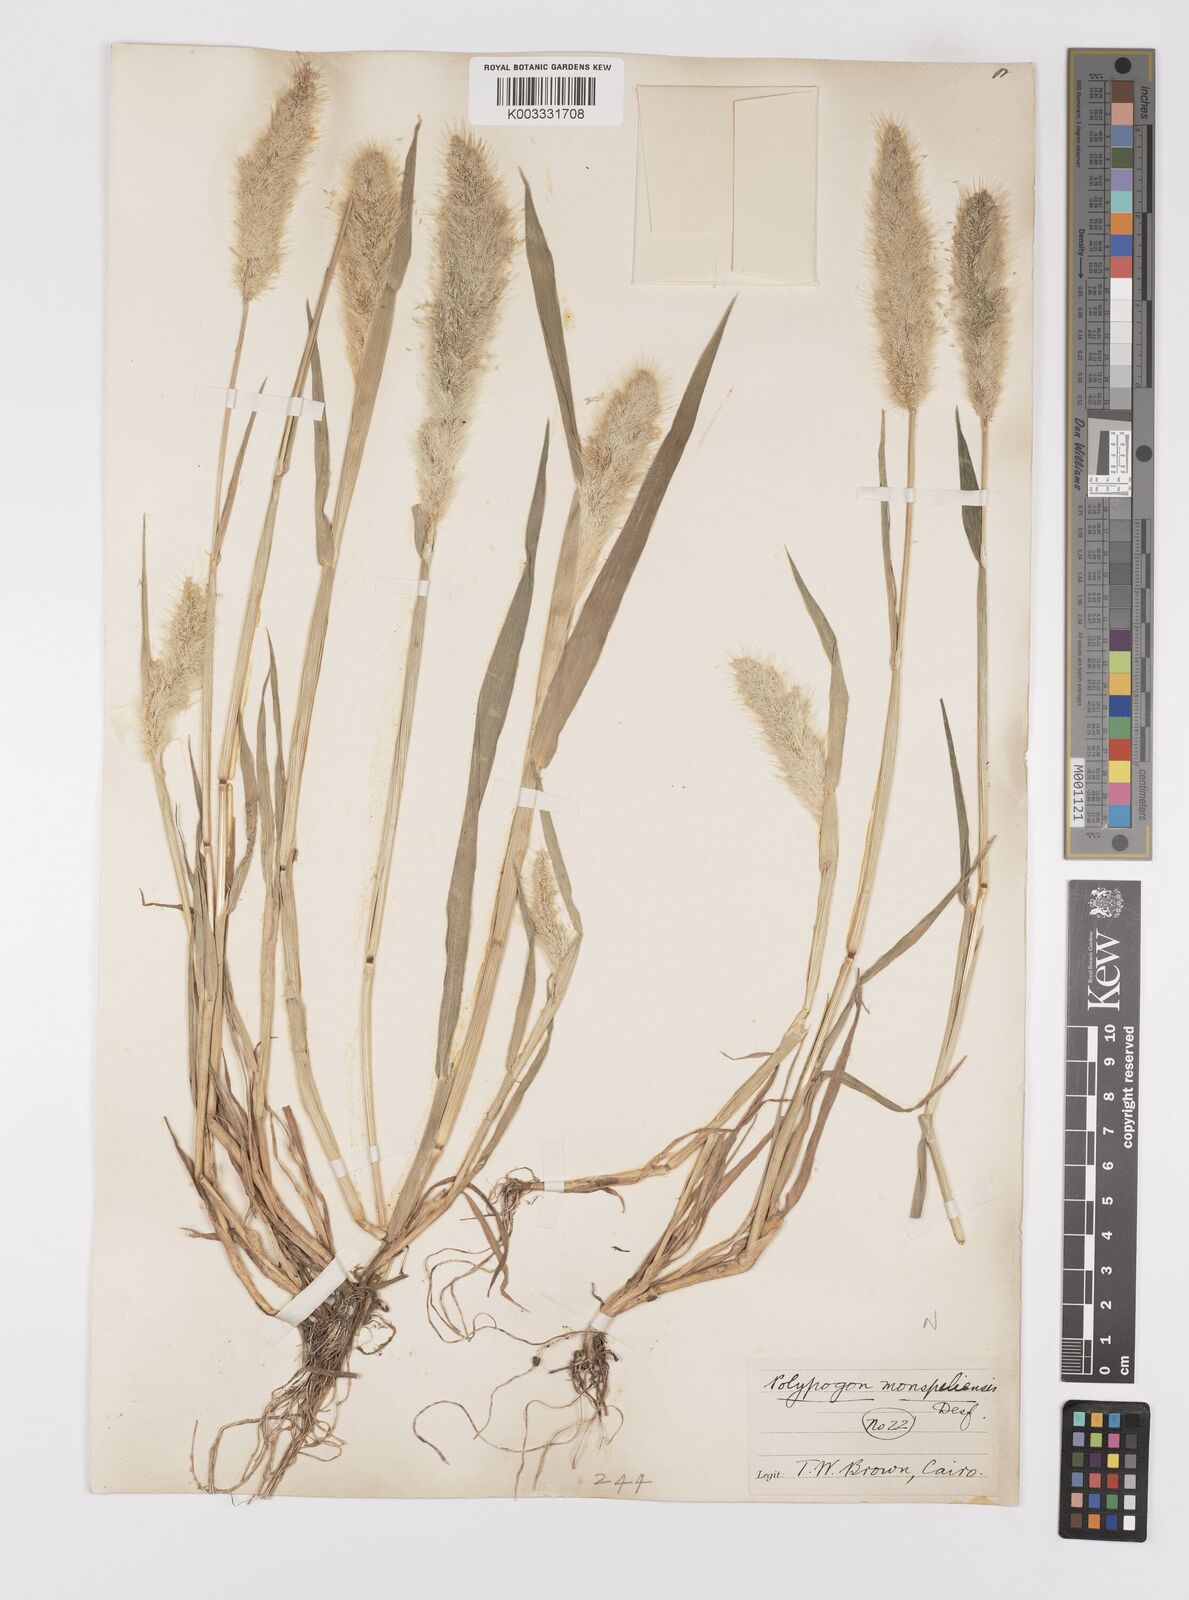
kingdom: Plantae
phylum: Tracheophyta
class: Liliopsida
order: Poales
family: Poaceae
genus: Polypogon
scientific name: Polypogon monspeliensis
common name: Annual rabbitsfoot grass
